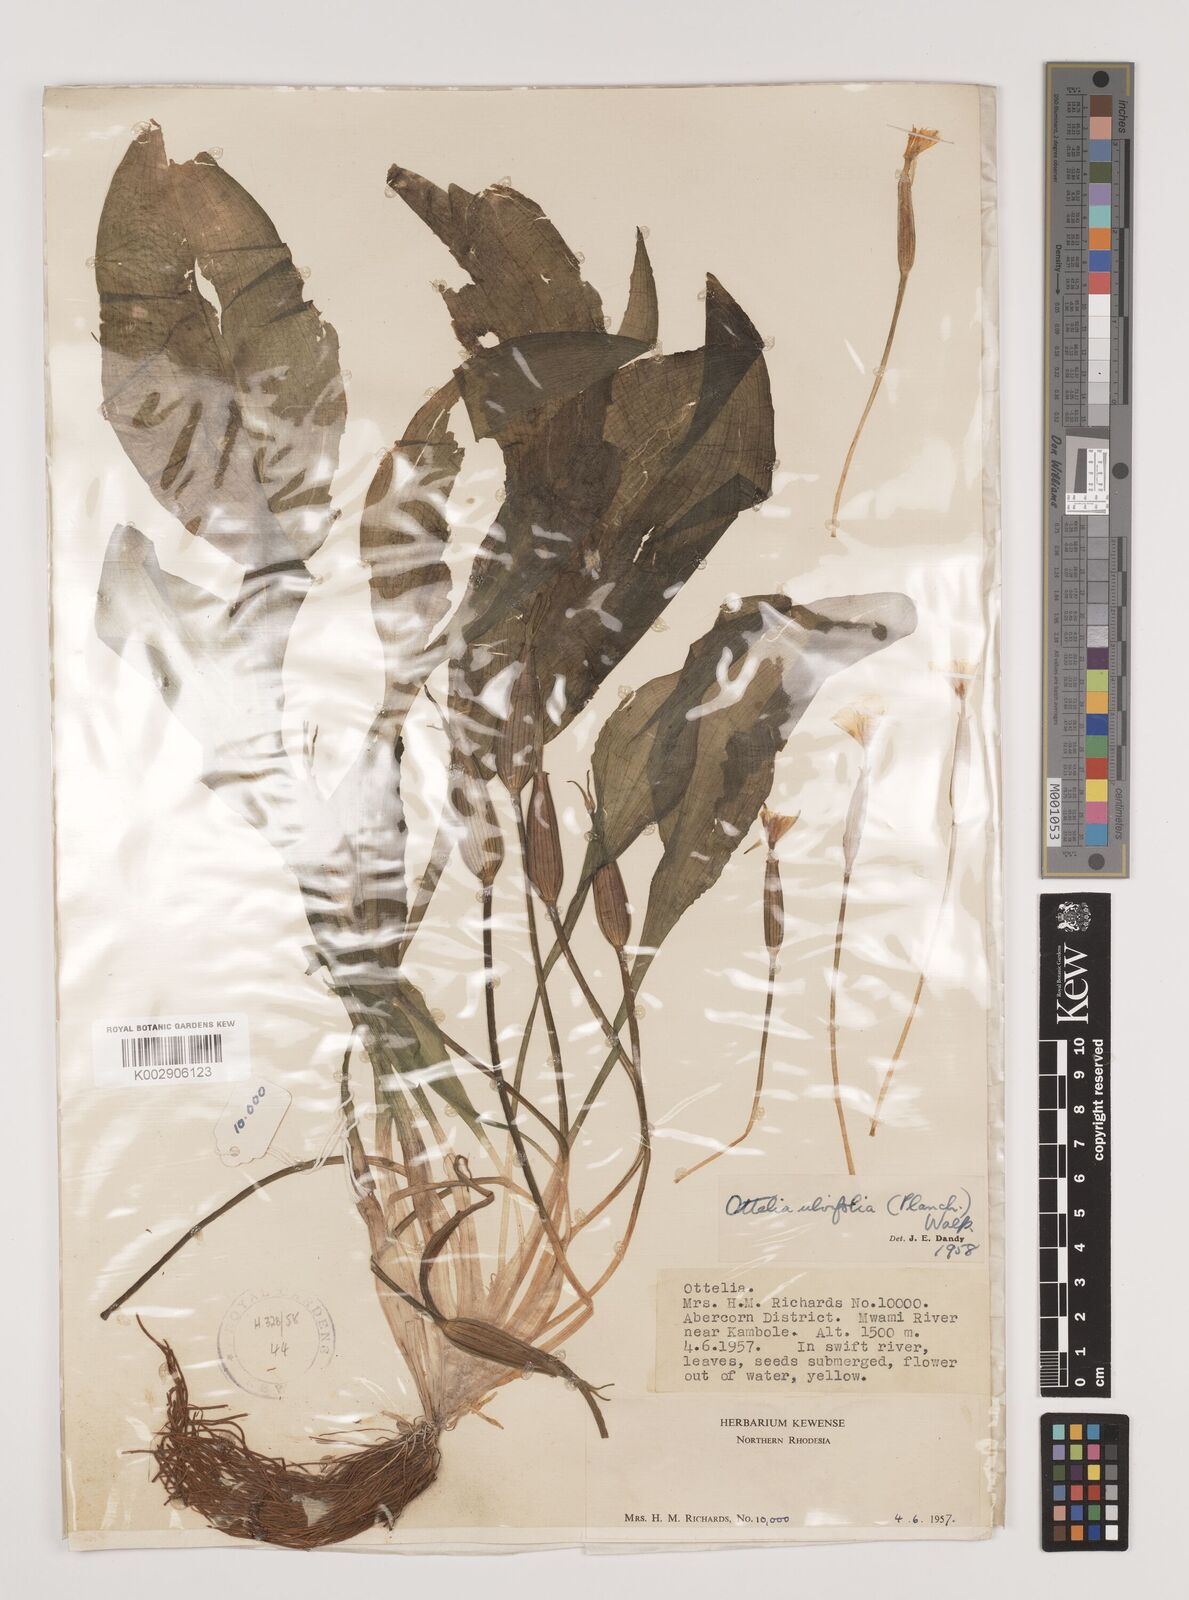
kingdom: Plantae
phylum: Tracheophyta
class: Liliopsida
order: Alismatales
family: Hydrocharitaceae
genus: Ottelia
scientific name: Ottelia ulvifolia
